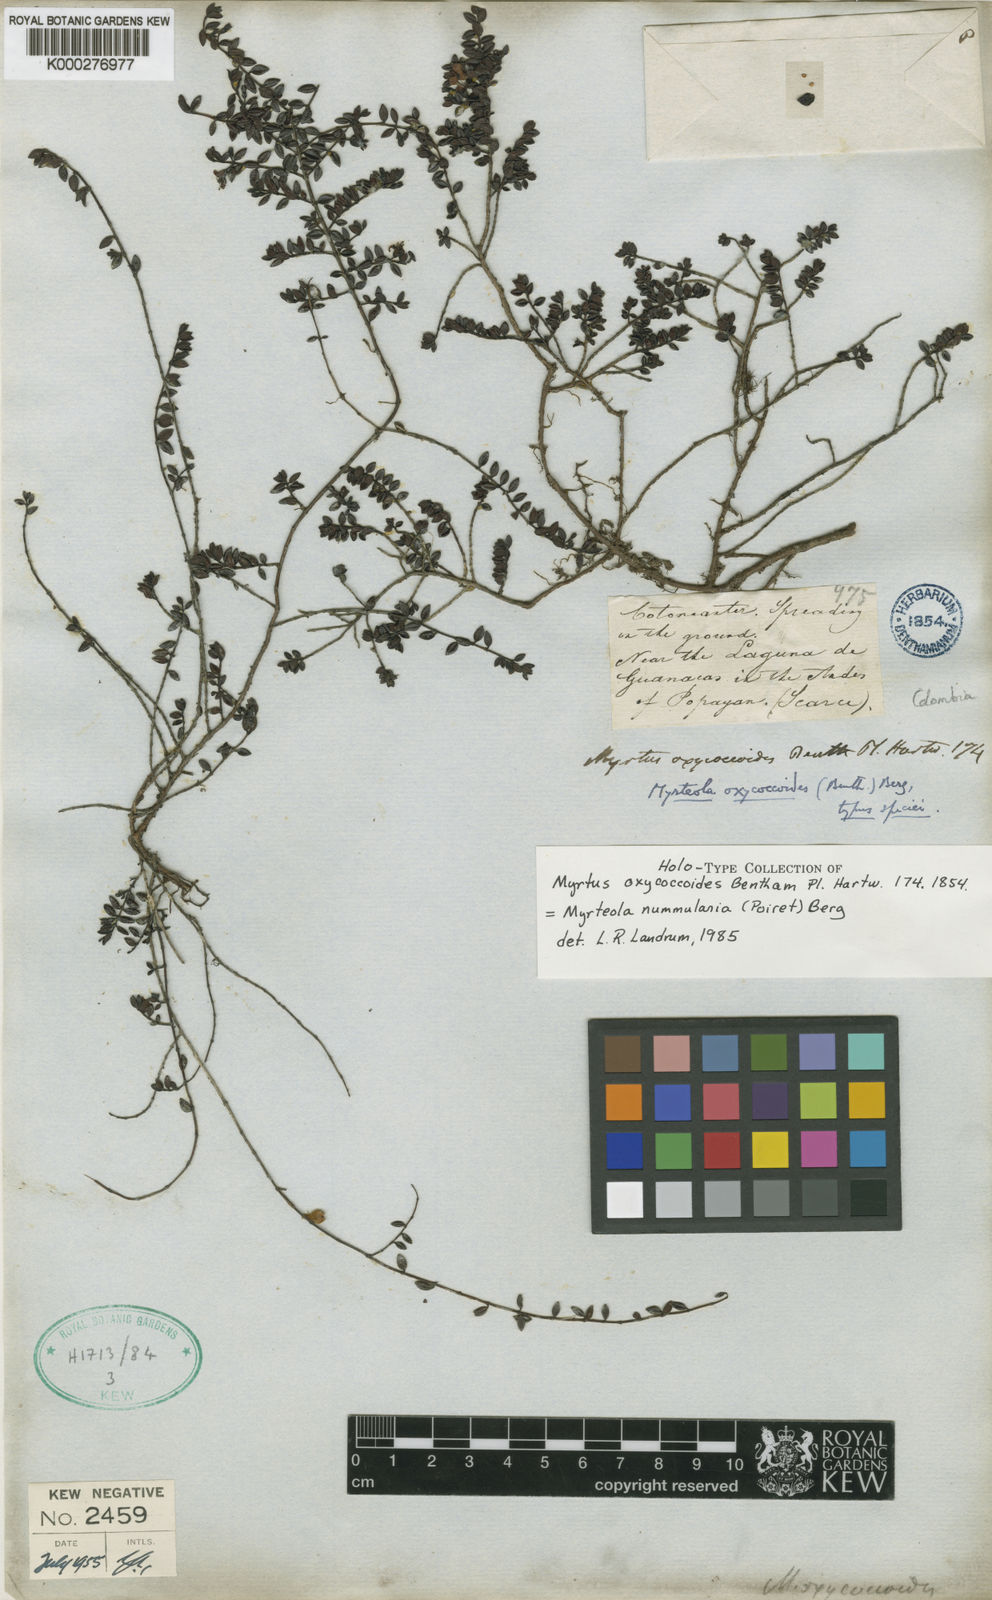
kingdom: Plantae
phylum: Tracheophyta
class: Magnoliopsida
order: Myrtales
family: Myrtaceae
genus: Myrteola
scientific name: Myrteola nummularia
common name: Cranberry-myrtle
